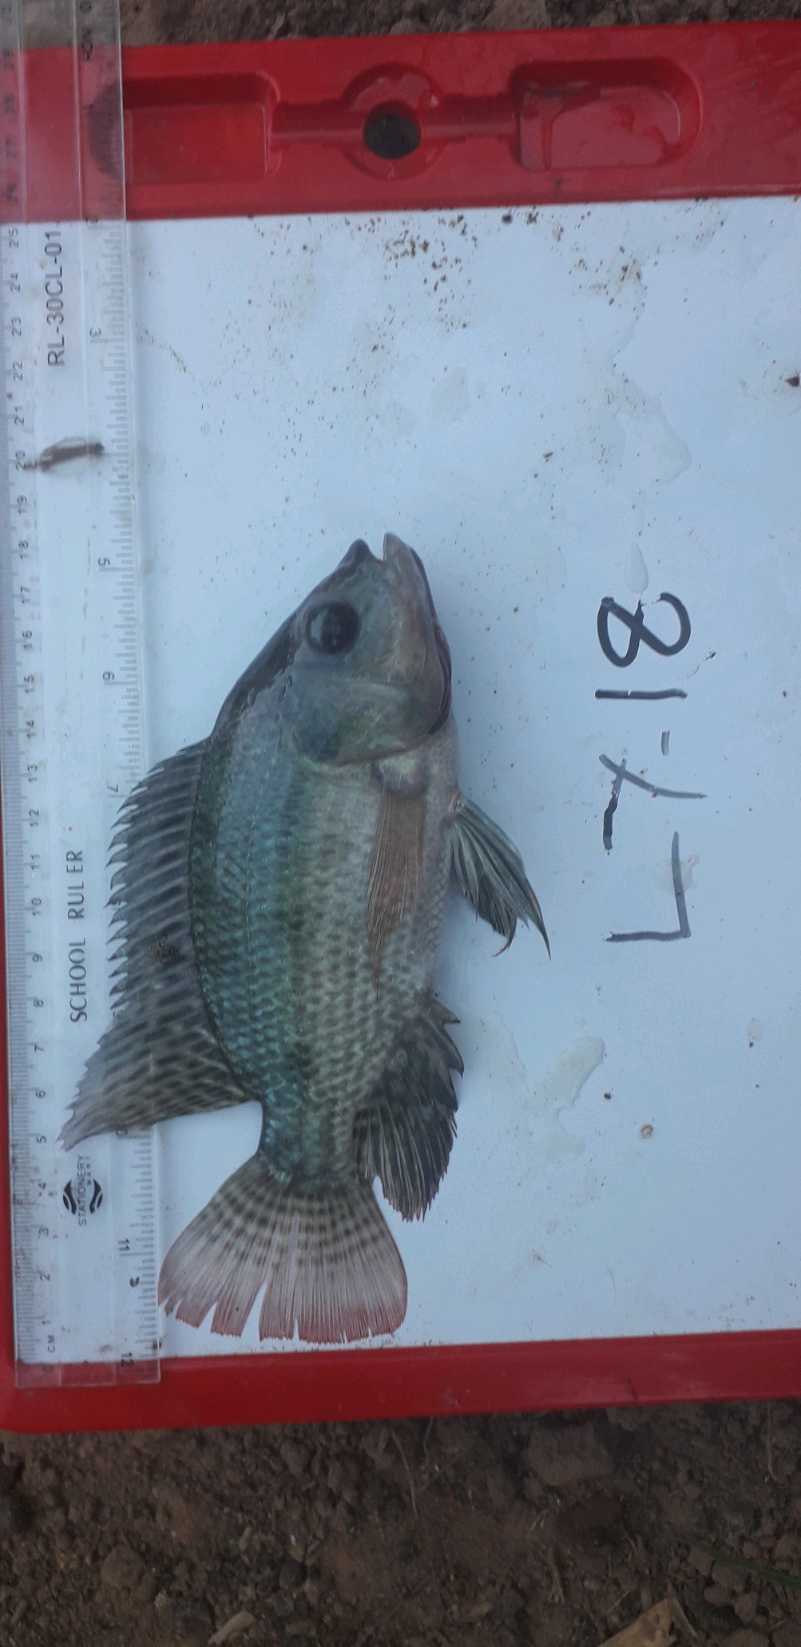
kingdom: Animalia
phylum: Chordata
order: Perciformes
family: Cichlidae
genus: Oreochromis
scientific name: Oreochromis niloticus
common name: Nile tilapia
